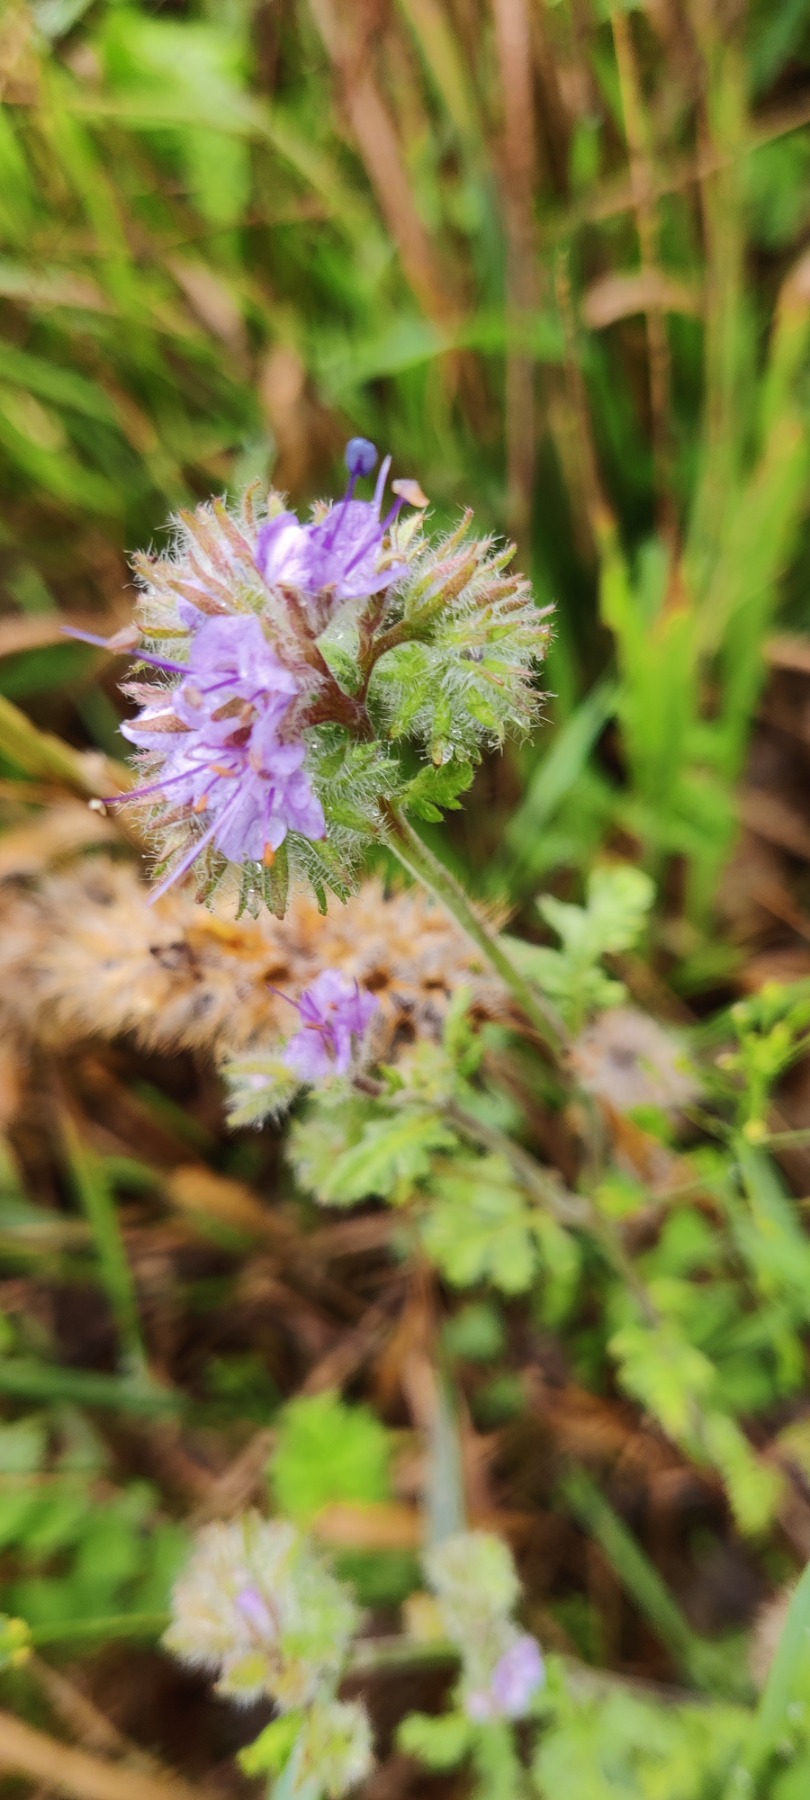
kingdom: Plantae
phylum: Tracheophyta
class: Magnoliopsida
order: Boraginales
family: Hydrophyllaceae
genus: Phacelia
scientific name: Phacelia tanacetifolia
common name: Honningurt
